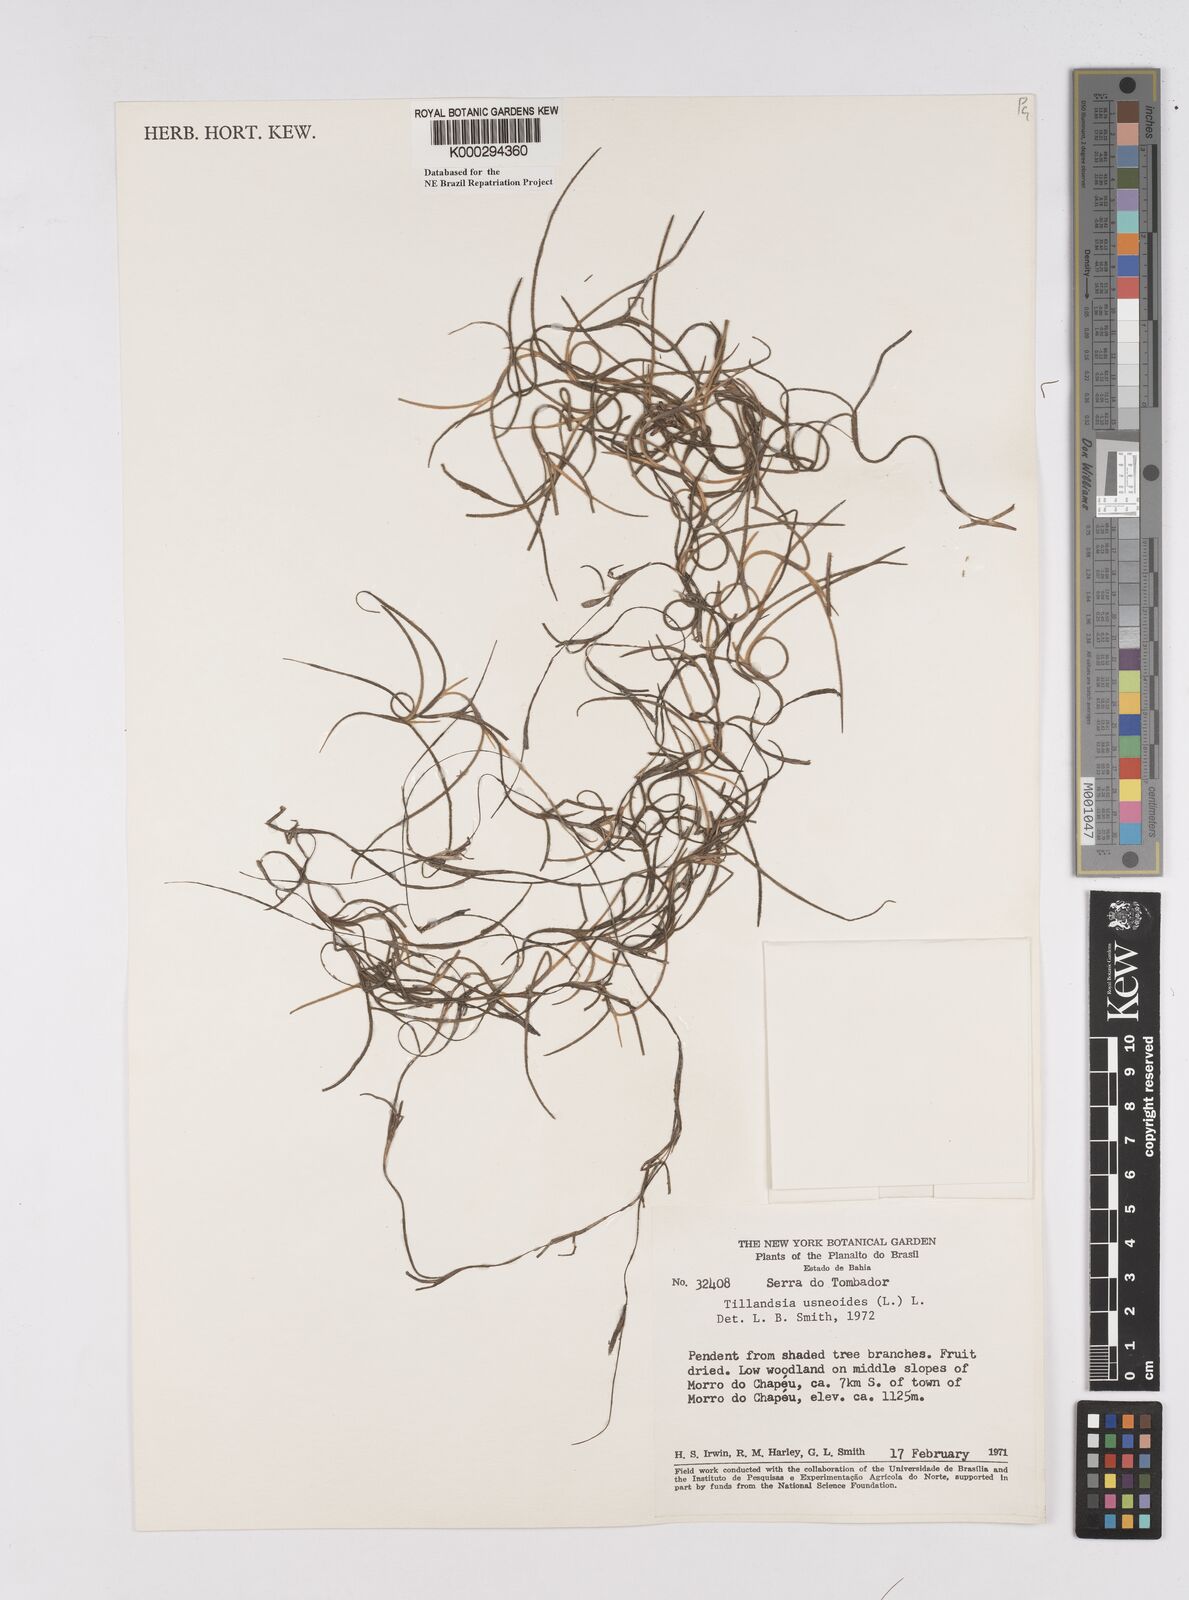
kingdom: Plantae
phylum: Tracheophyta
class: Liliopsida
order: Poales
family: Bromeliaceae
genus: Tillandsia
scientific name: Tillandsia usneoides
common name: Spanish moss
